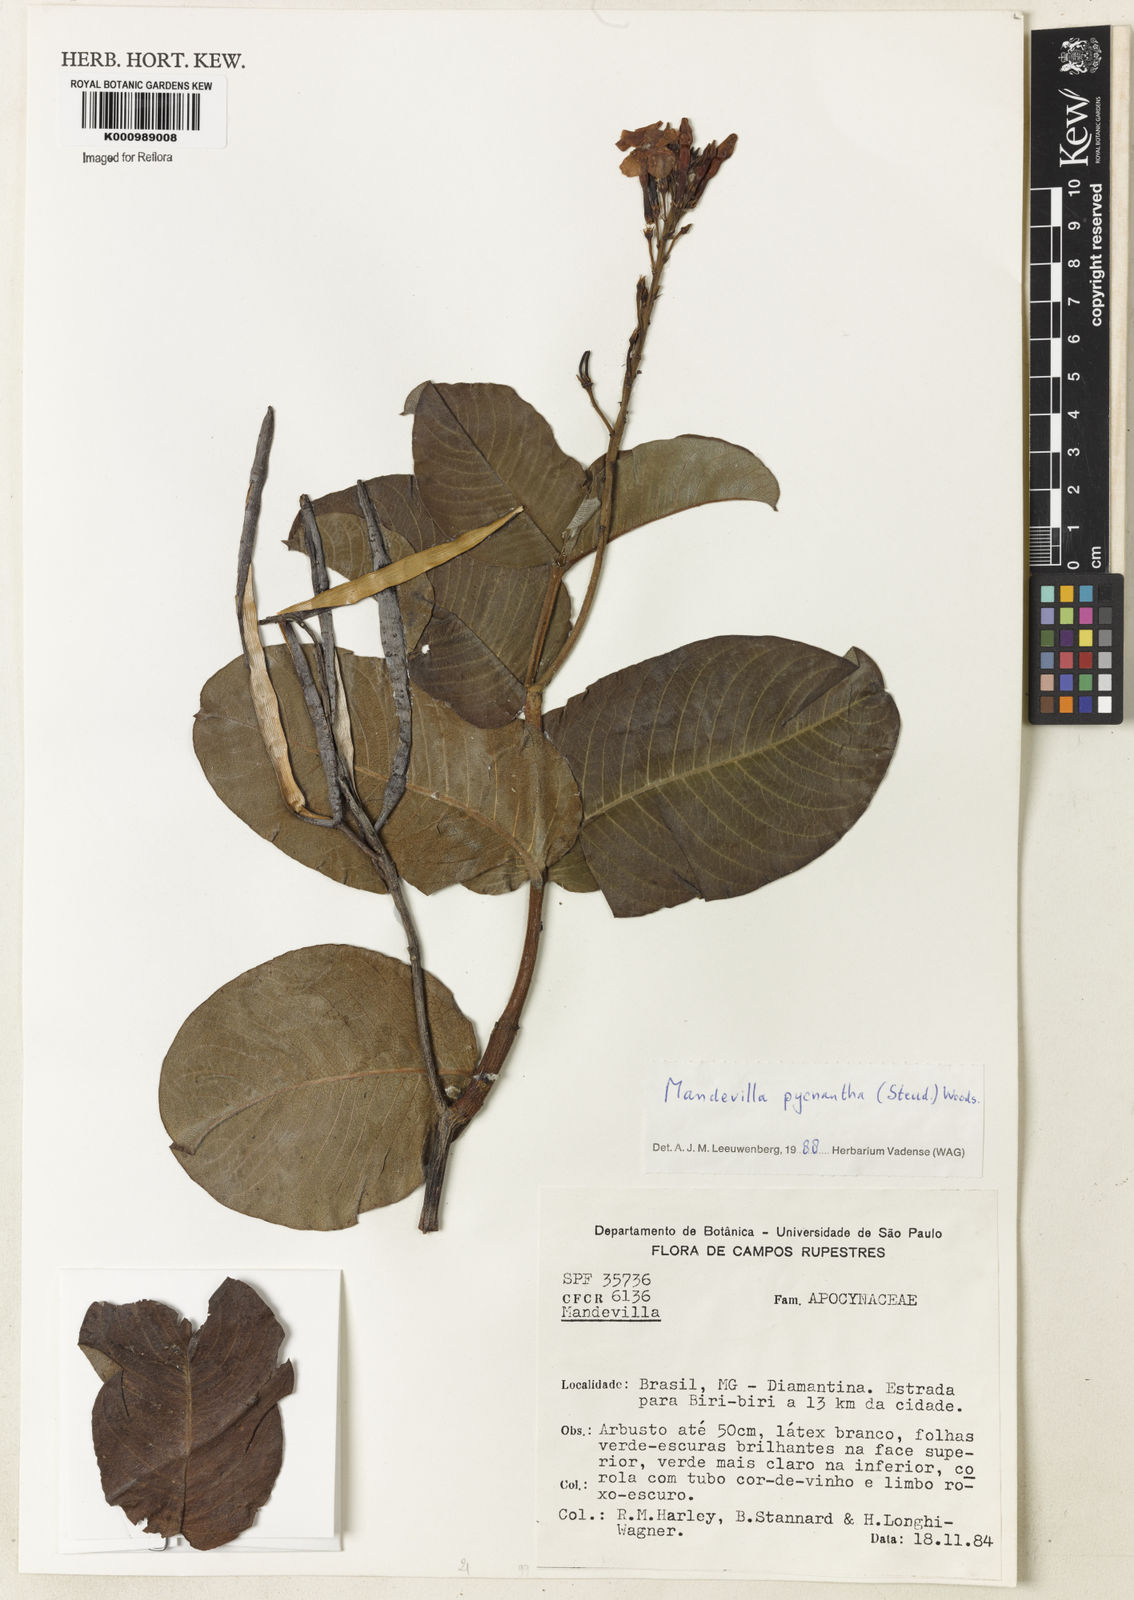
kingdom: Plantae
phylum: Tracheophyta
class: Magnoliopsida
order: Gentianales
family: Apocynaceae
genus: Mandevilla
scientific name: Mandevilla pycnantha
